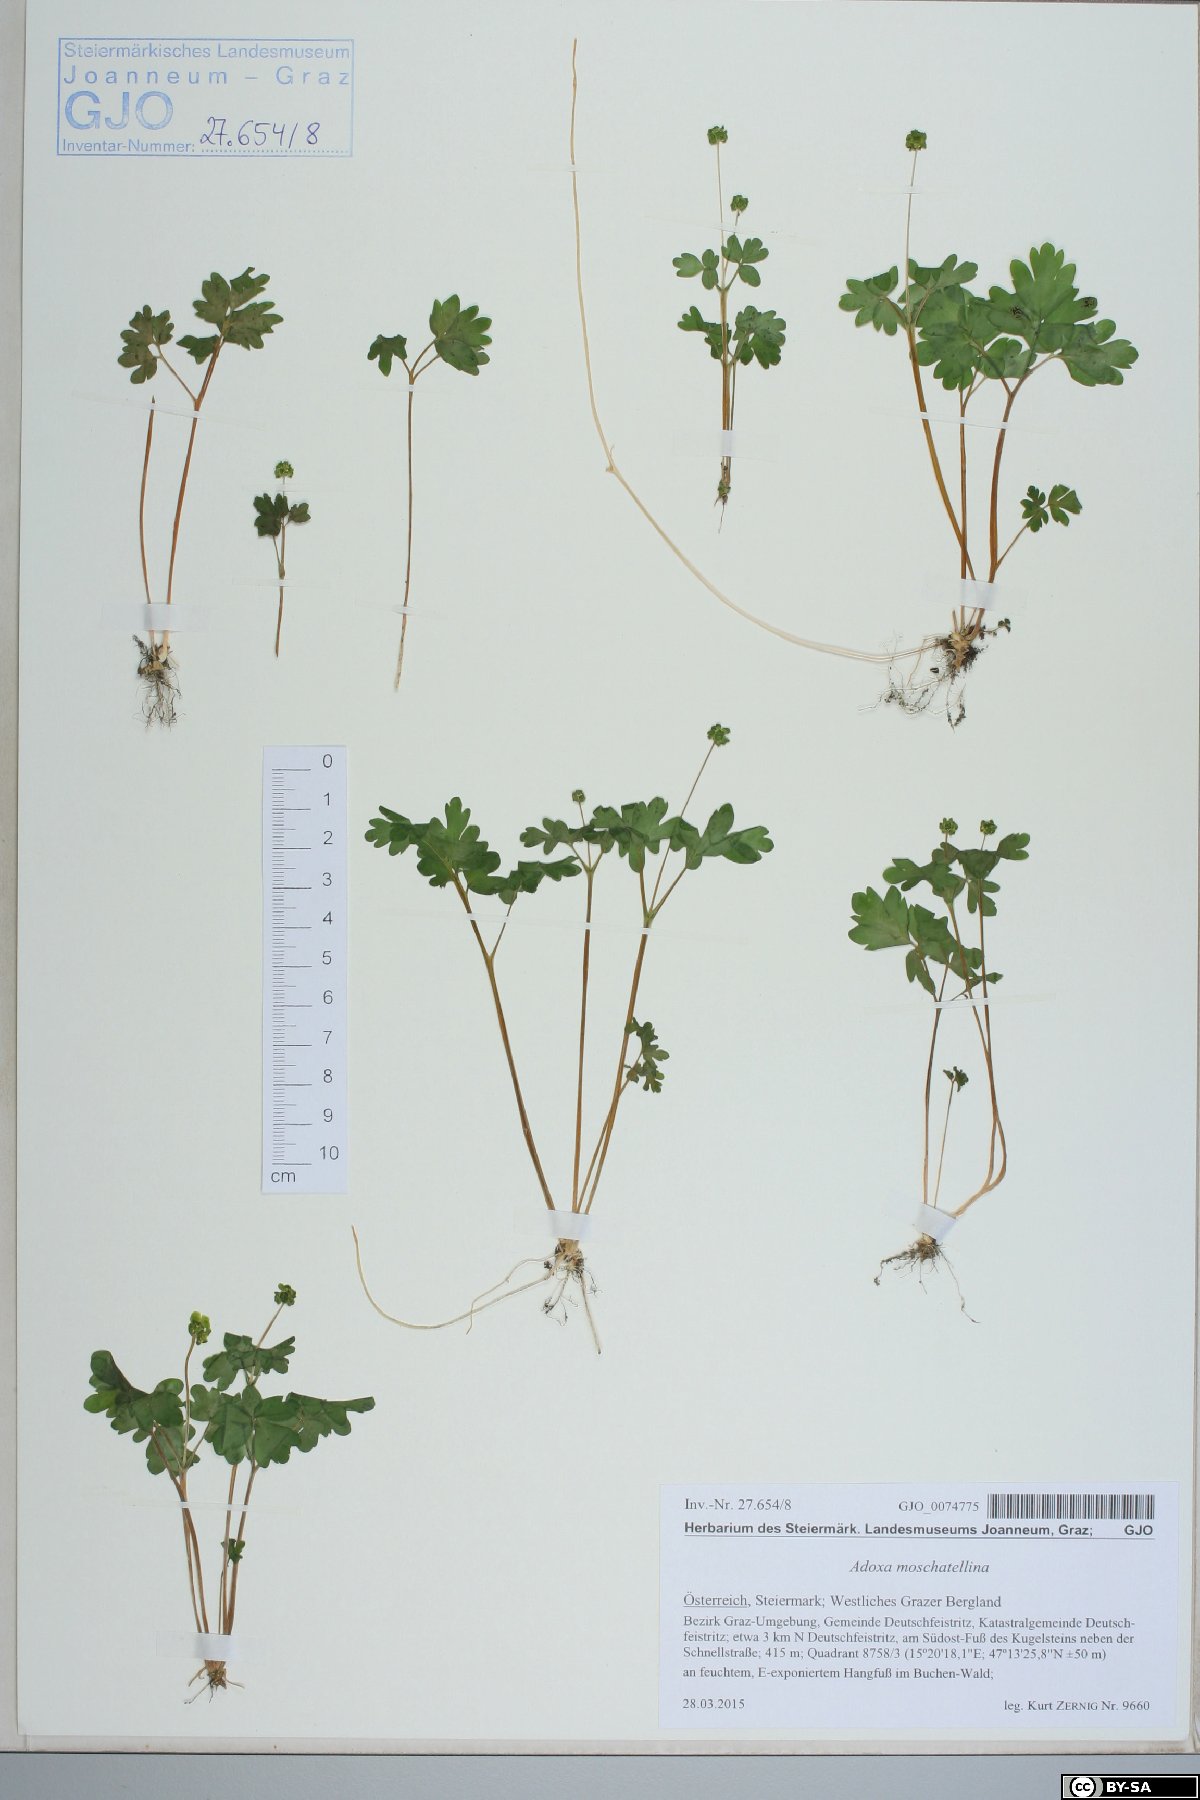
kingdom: Plantae
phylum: Tracheophyta
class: Magnoliopsida
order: Dipsacales
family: Viburnaceae
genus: Adoxa
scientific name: Adoxa moschatellina
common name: Moschatel
